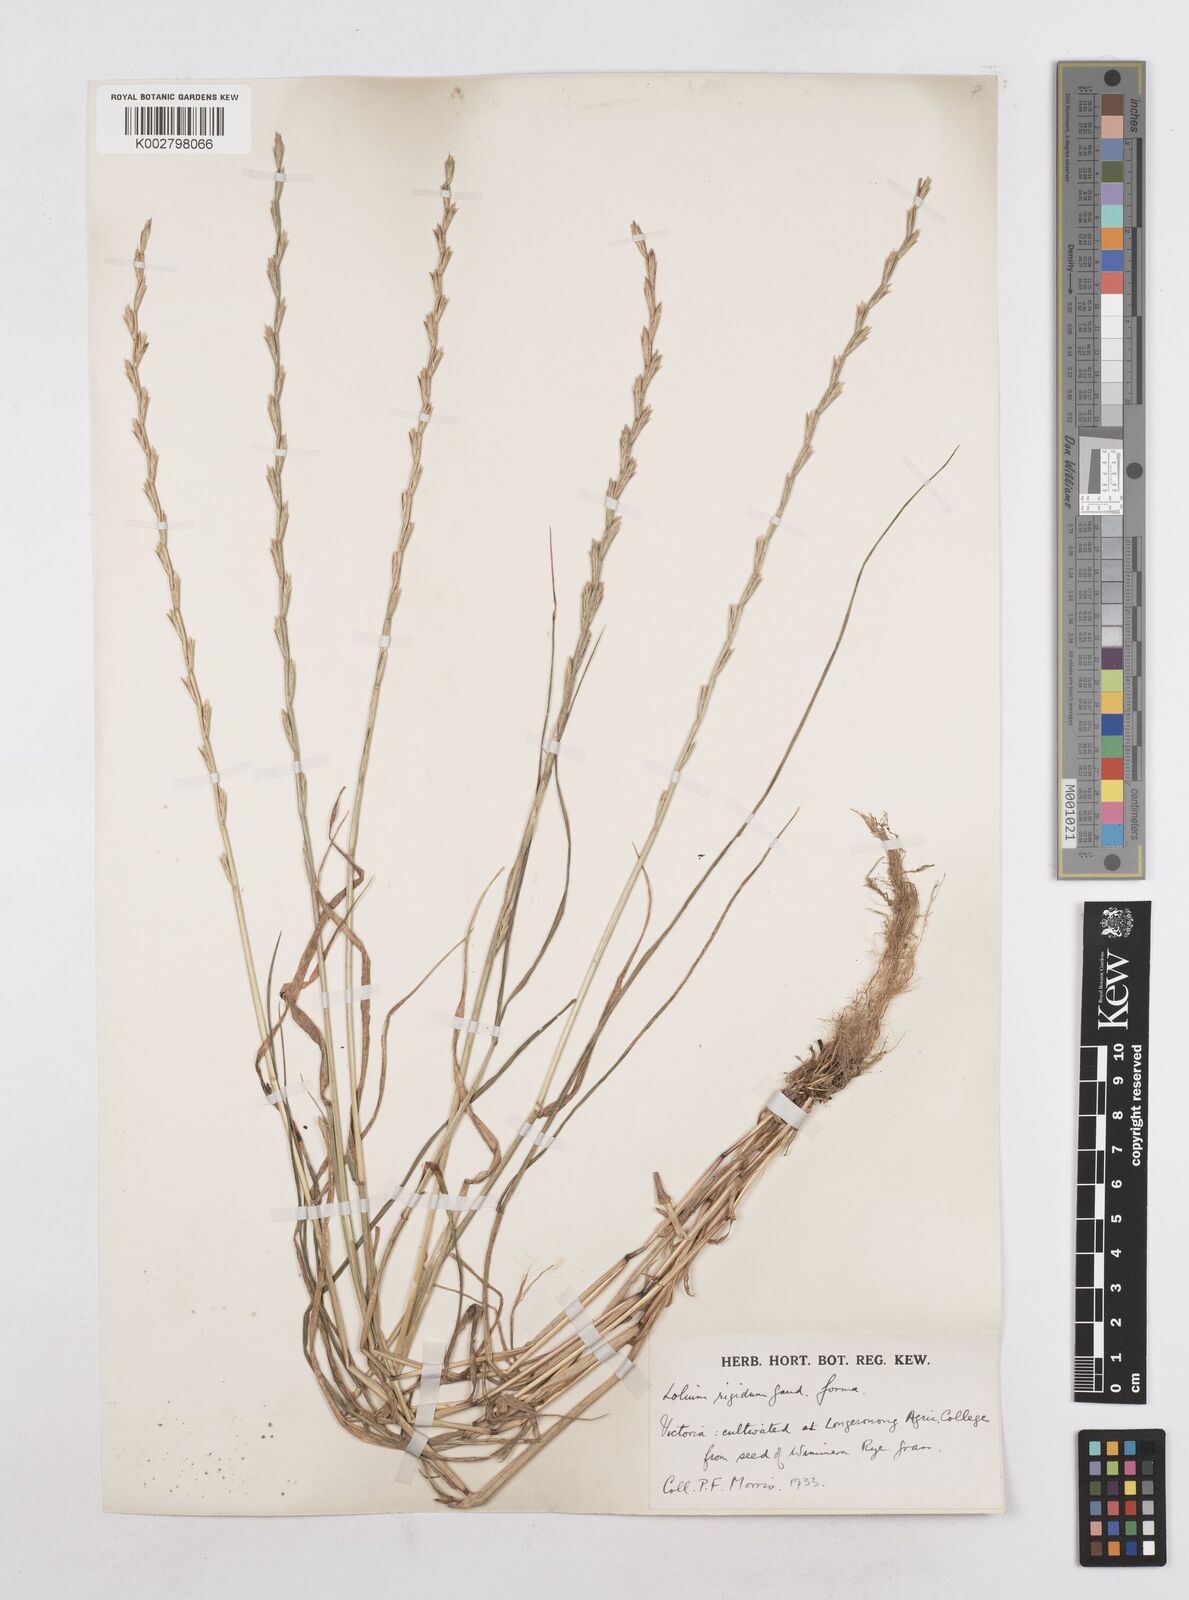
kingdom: Plantae
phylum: Tracheophyta
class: Liliopsida
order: Poales
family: Poaceae
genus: Lolium
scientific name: Lolium rigidum
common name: Wimmera ryegrass
